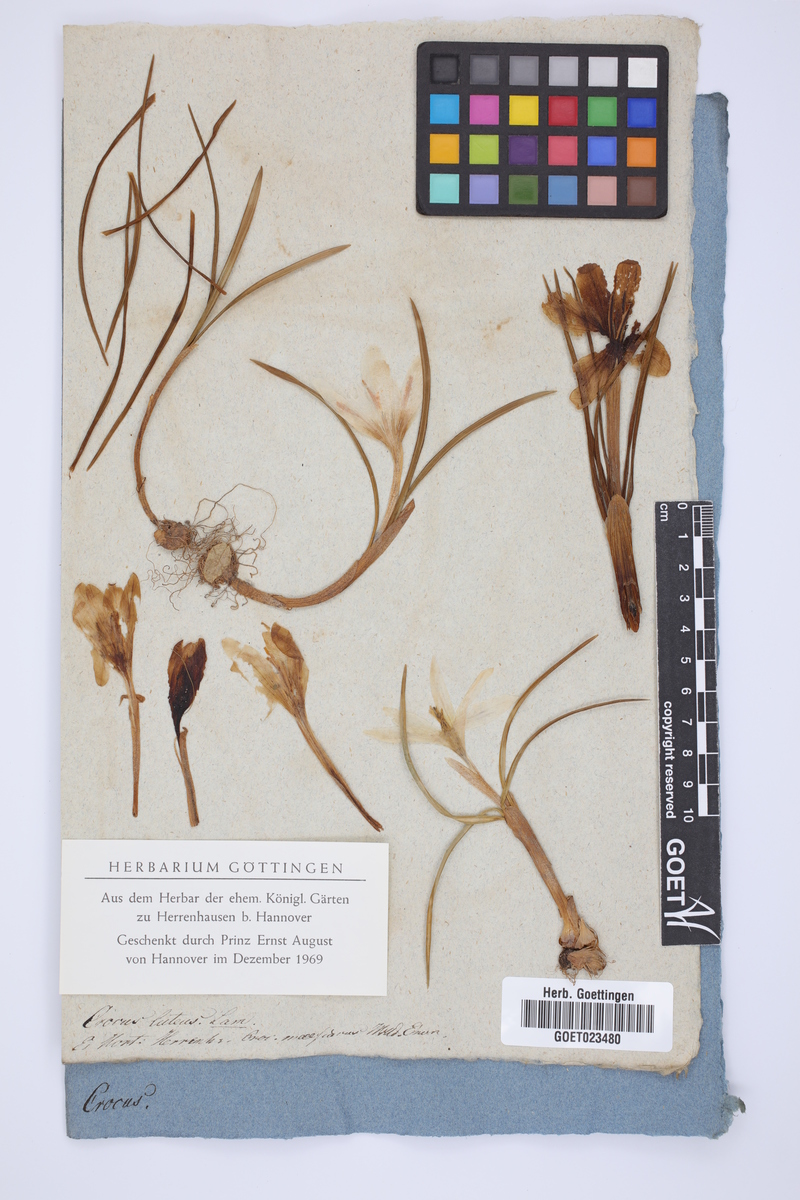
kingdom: Plantae
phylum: Tracheophyta
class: Liliopsida
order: Asparagales
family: Iridaceae
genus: Crocus
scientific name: Crocus flavus
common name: Yellow crocus
